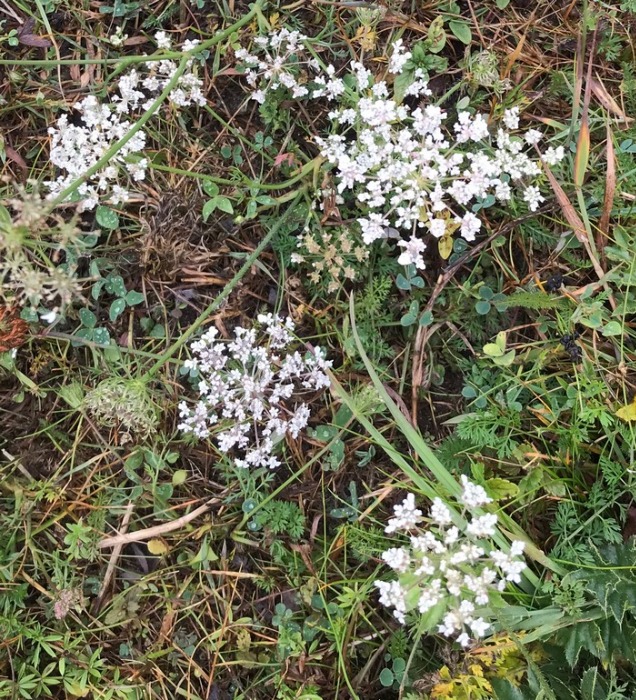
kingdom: Plantae
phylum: Tracheophyta
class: Magnoliopsida
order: Apiales
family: Apiaceae
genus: Daucus
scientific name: Daucus carota
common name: Gulerod
